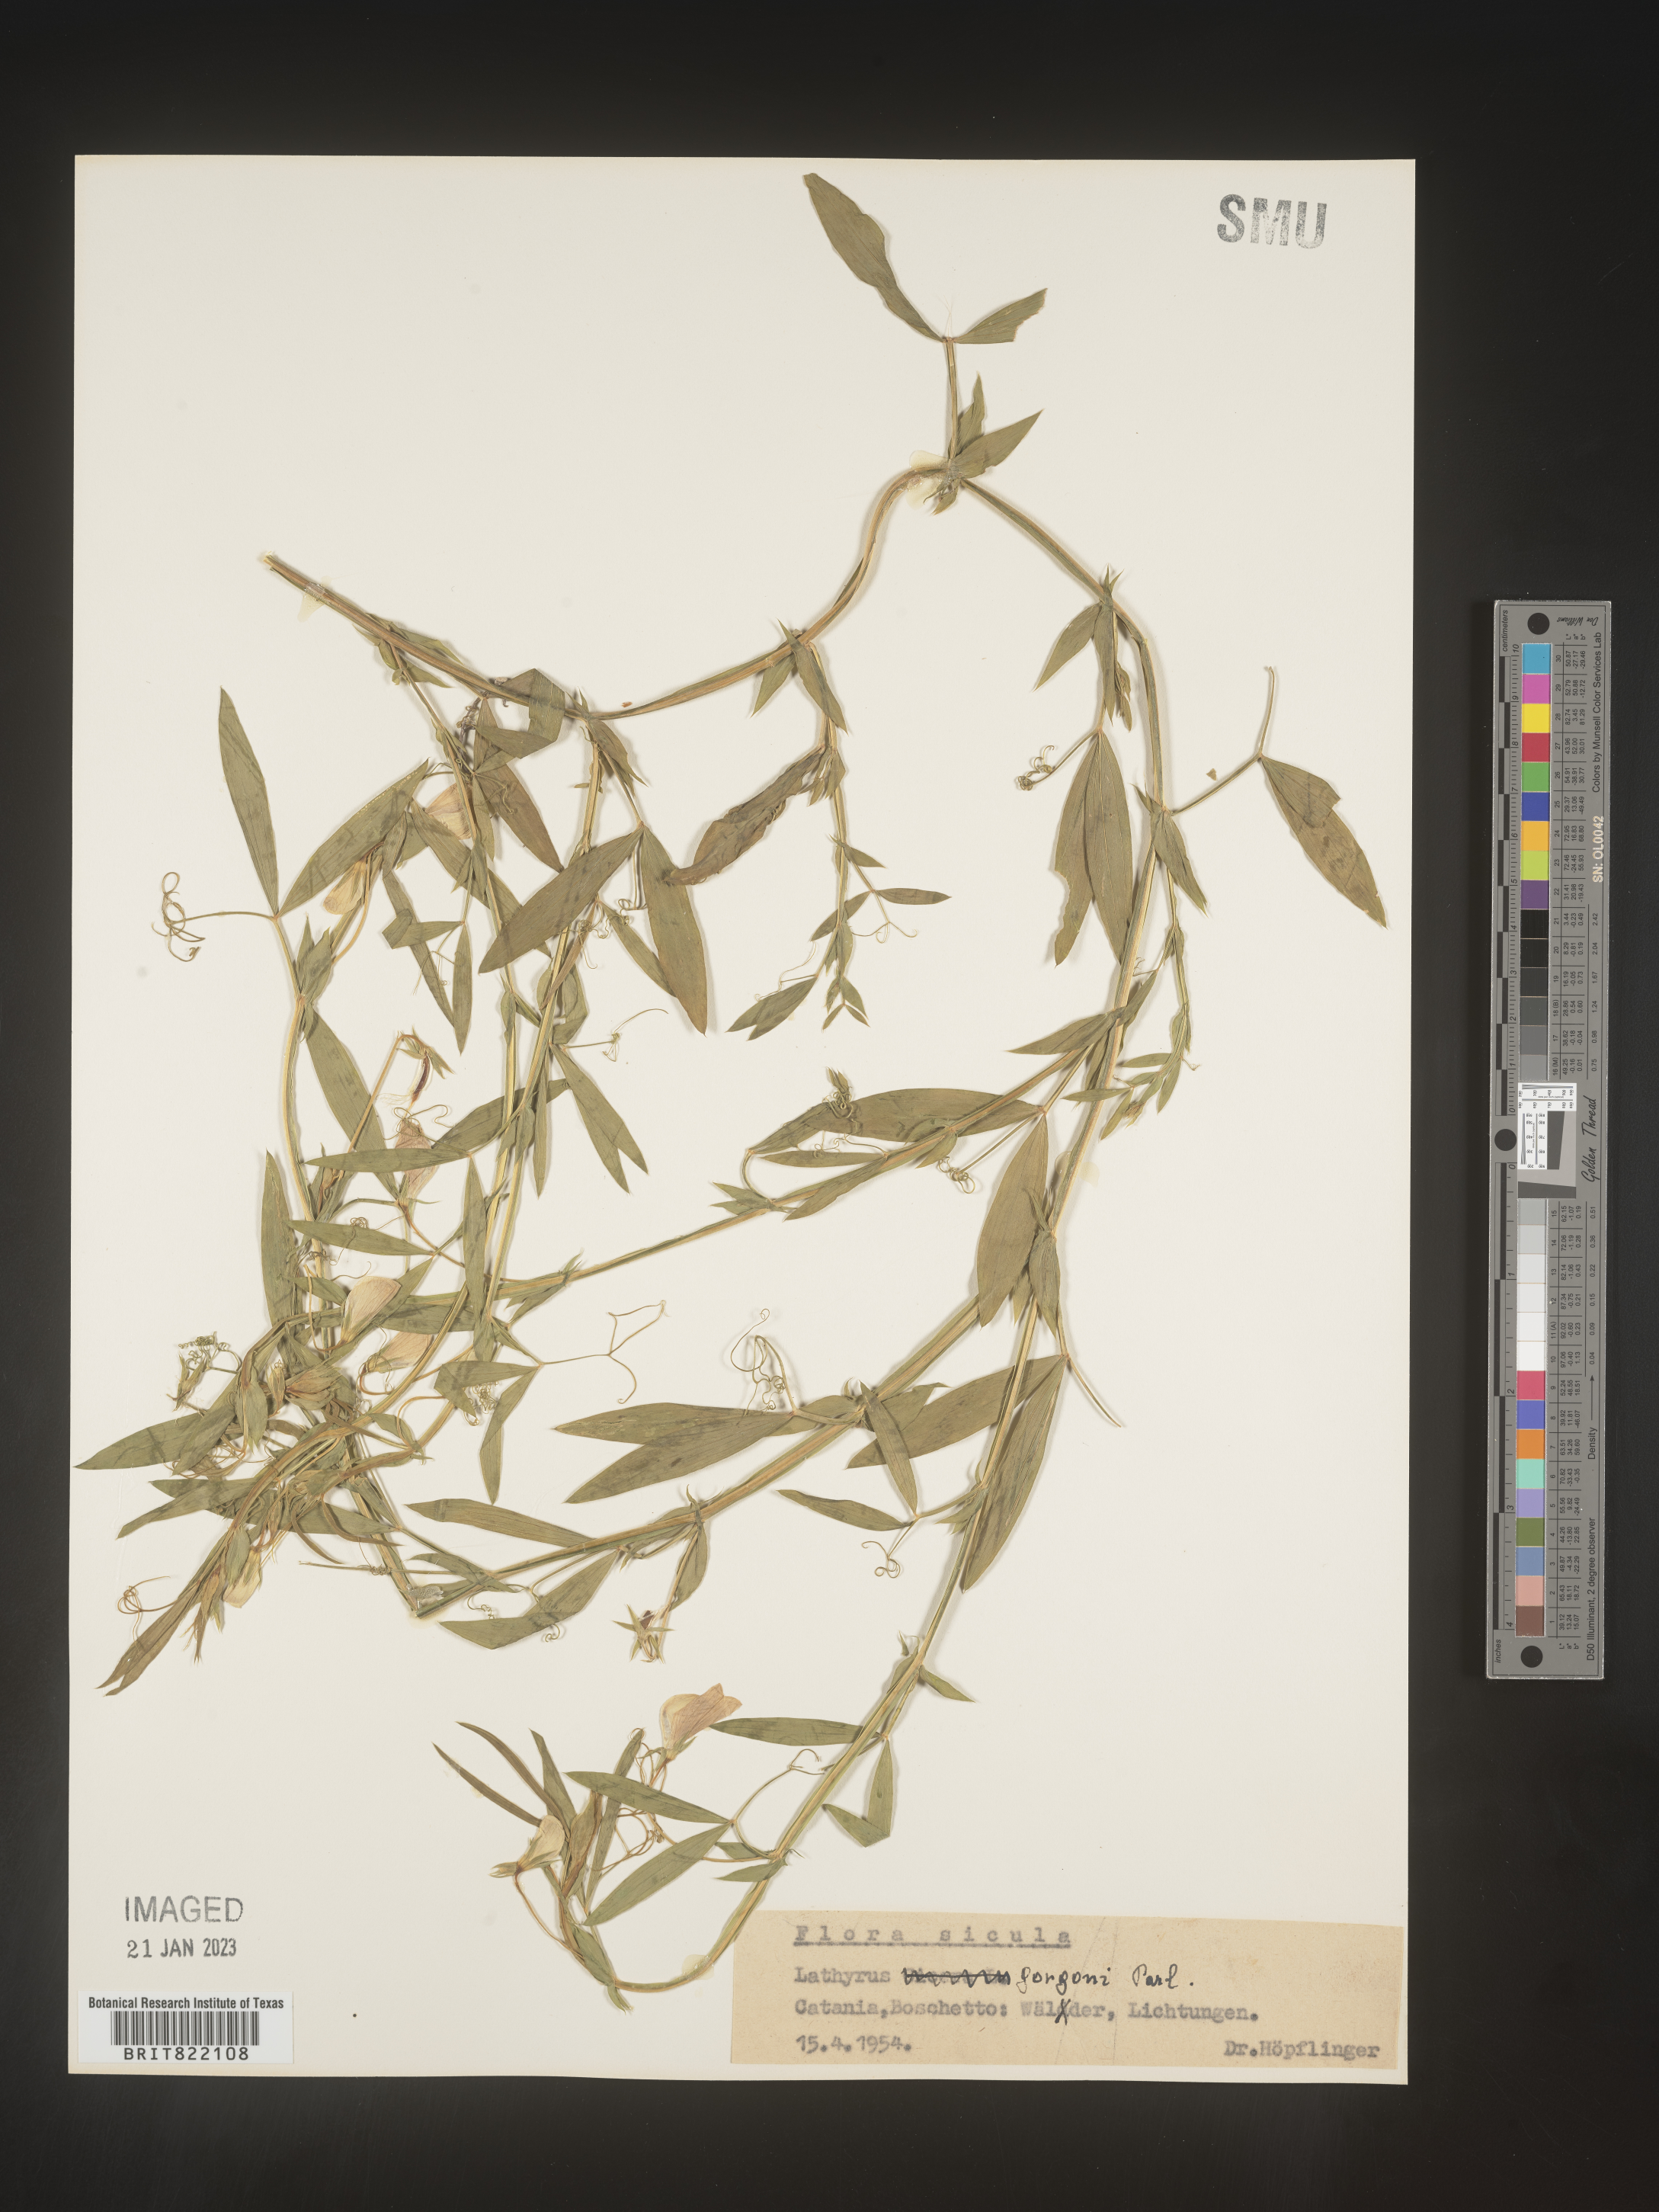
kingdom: Plantae
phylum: Tracheophyta
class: Magnoliopsida
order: Fabales
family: Fabaceae
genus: Lathyrus
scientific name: Lathyrus
